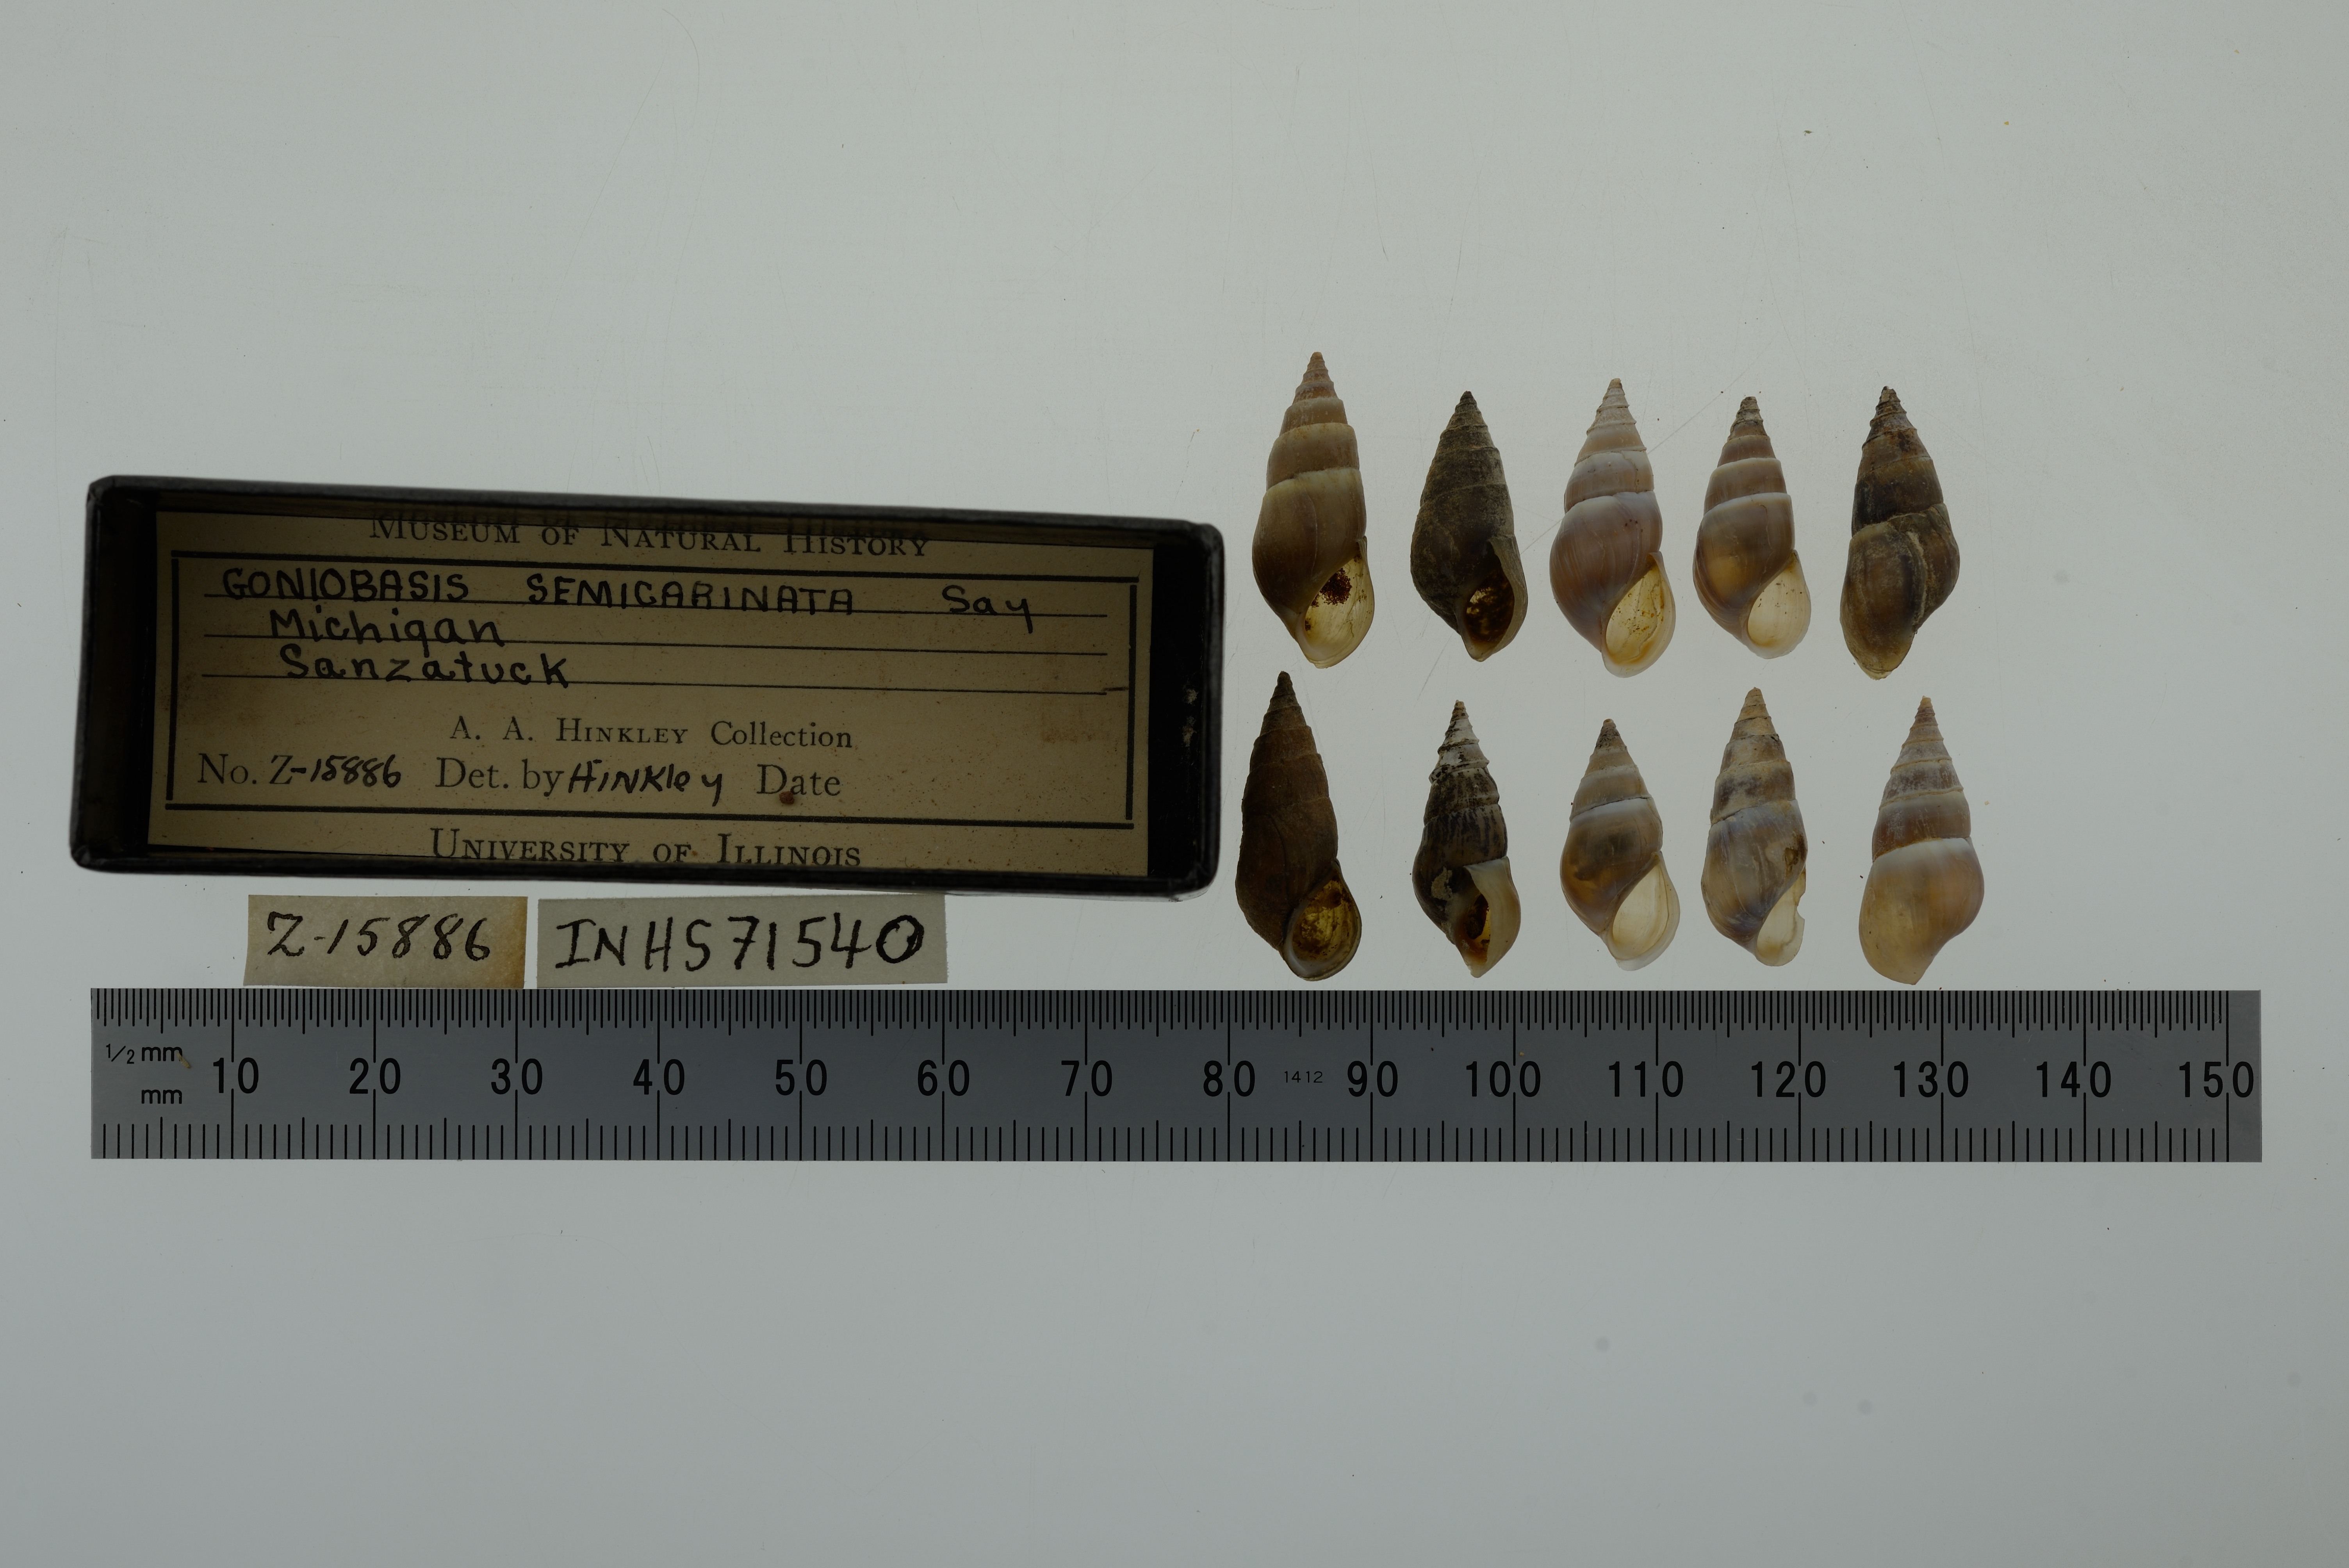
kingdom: Animalia
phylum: Mollusca
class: Gastropoda
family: Pleuroceridae
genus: Elimia
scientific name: Elimia livescens
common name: Liver elimia
